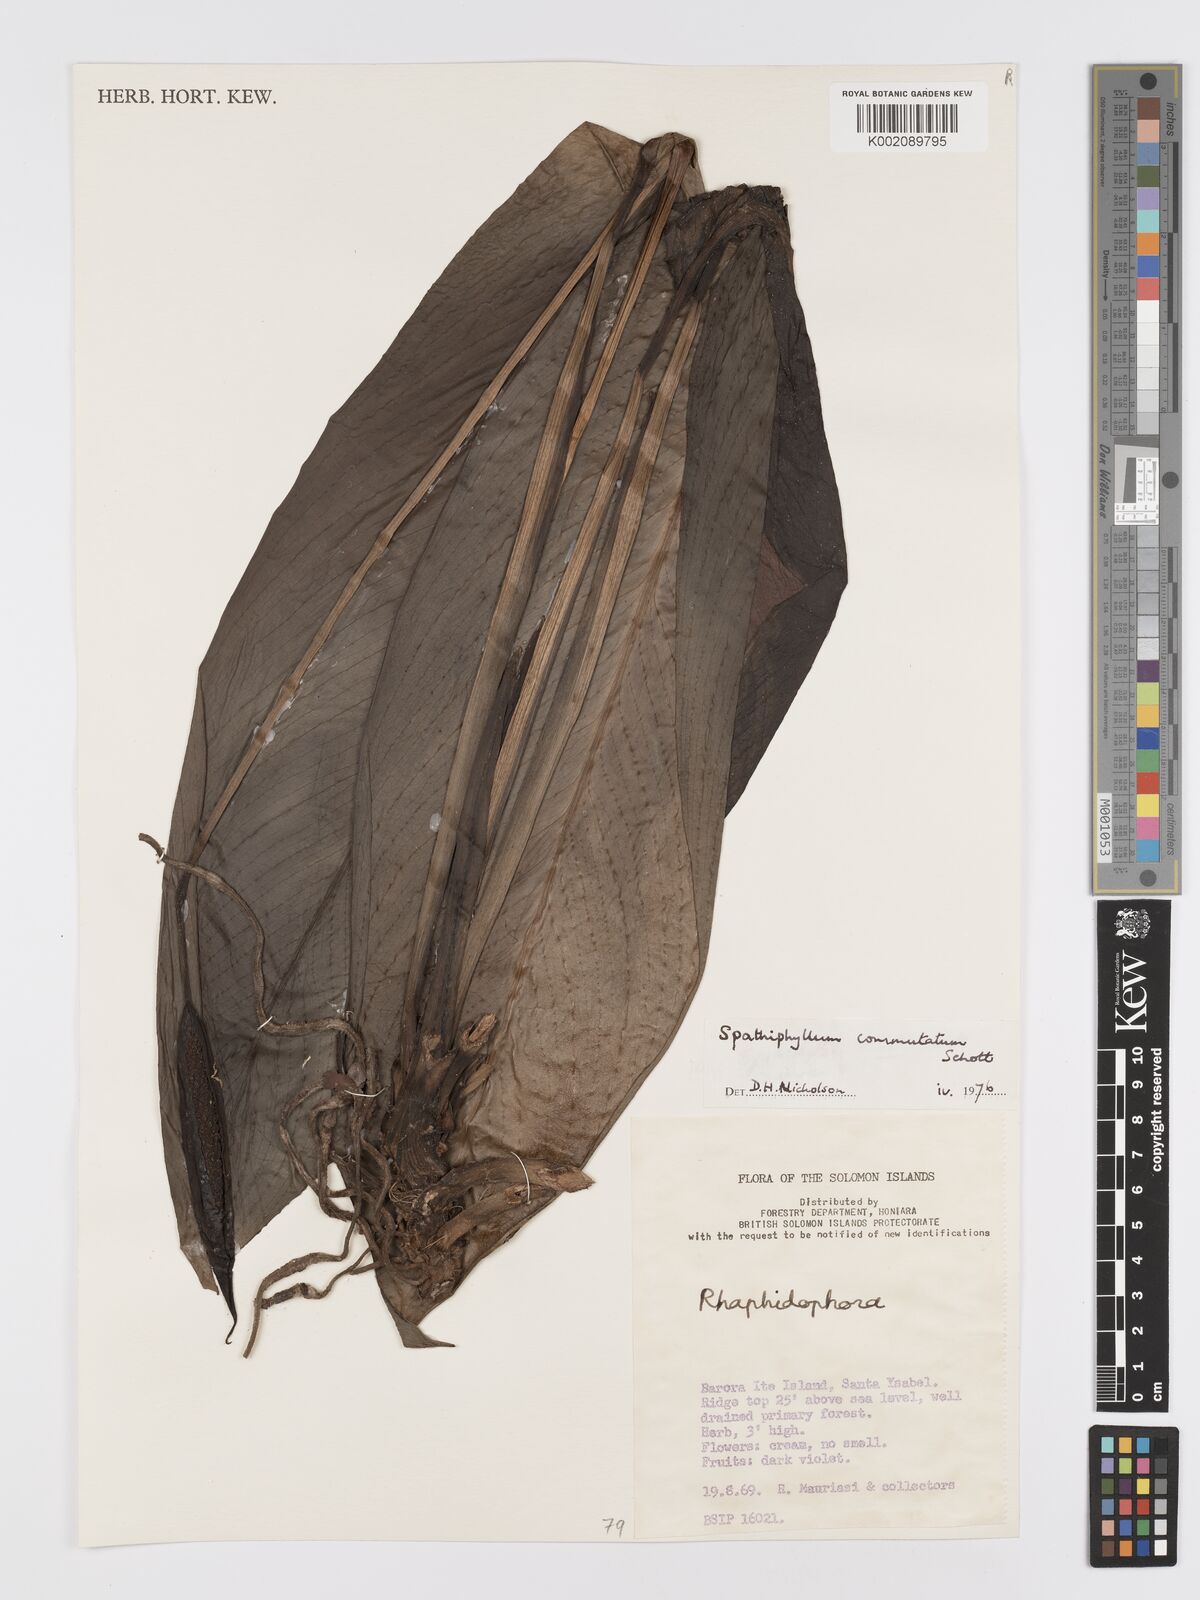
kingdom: Plantae
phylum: Tracheophyta
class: Liliopsida
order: Alismatales
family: Araceae
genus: Spathiphyllum
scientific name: Spathiphyllum commutatum
